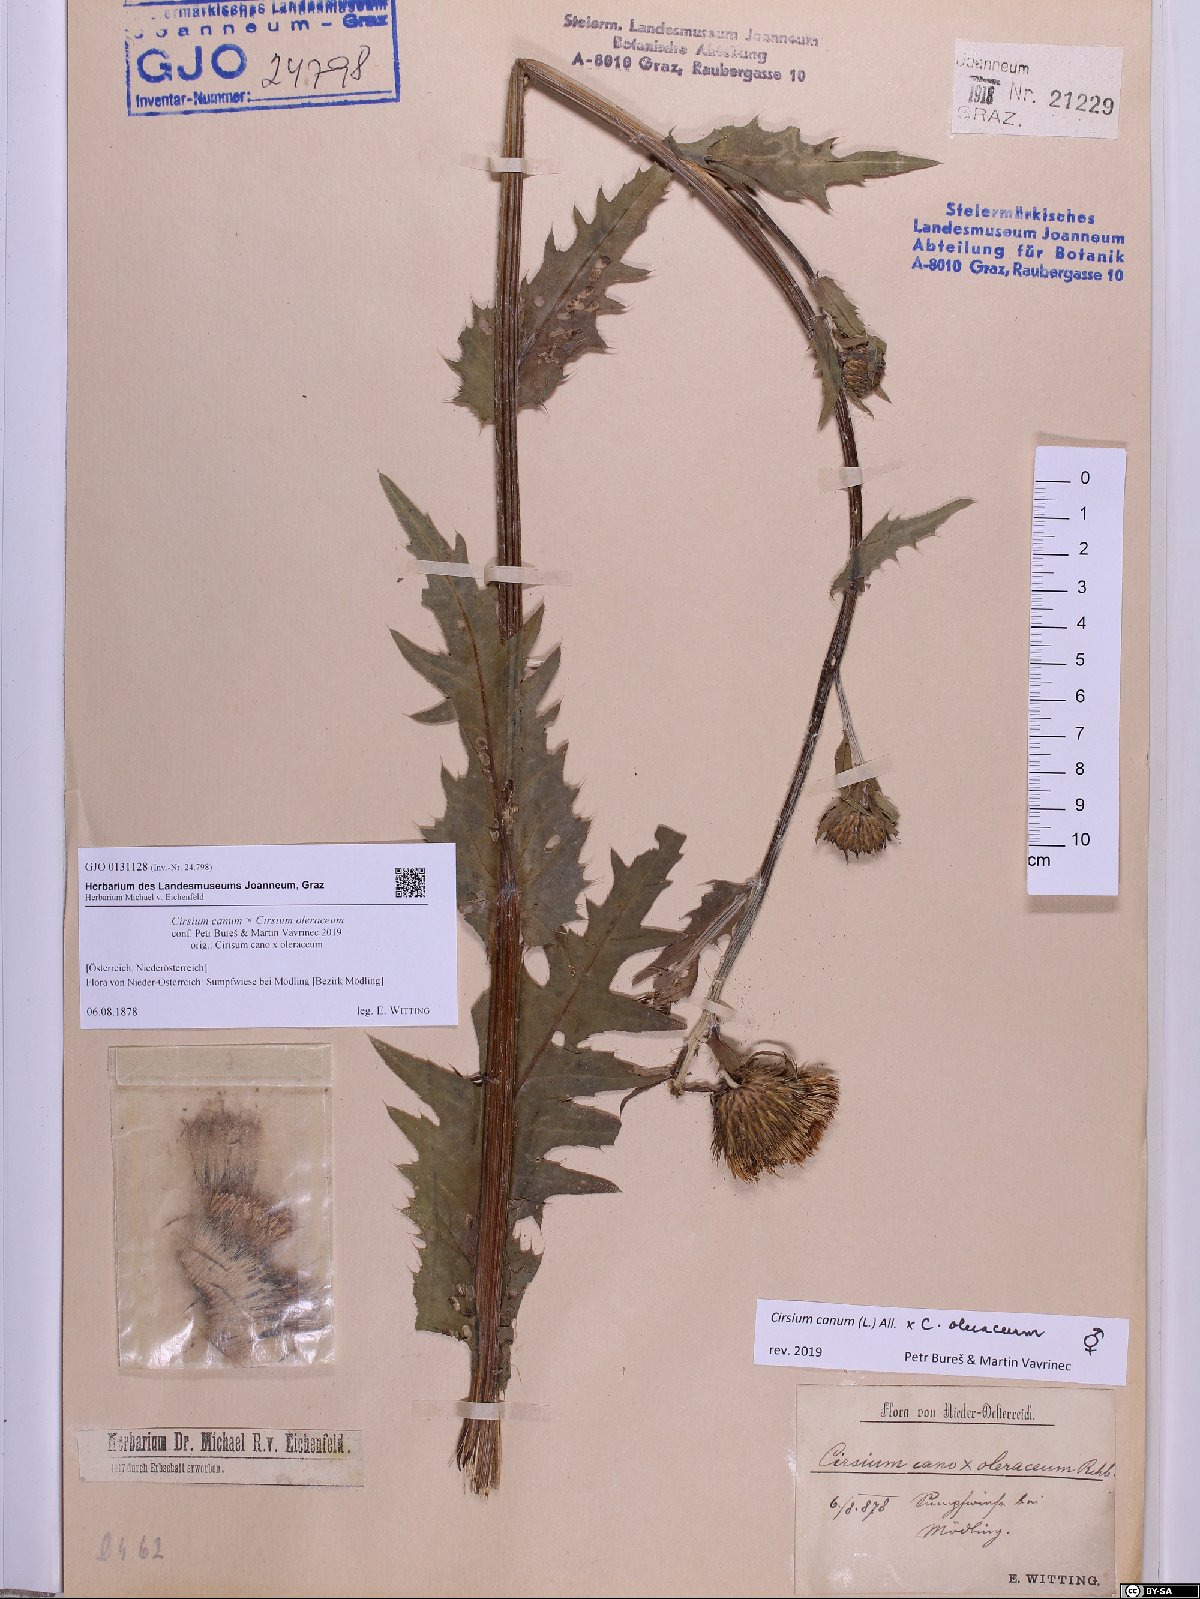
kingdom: Plantae
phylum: Tracheophyta
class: Magnoliopsida
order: Asterales
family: Asteraceae
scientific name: Asteraceae
